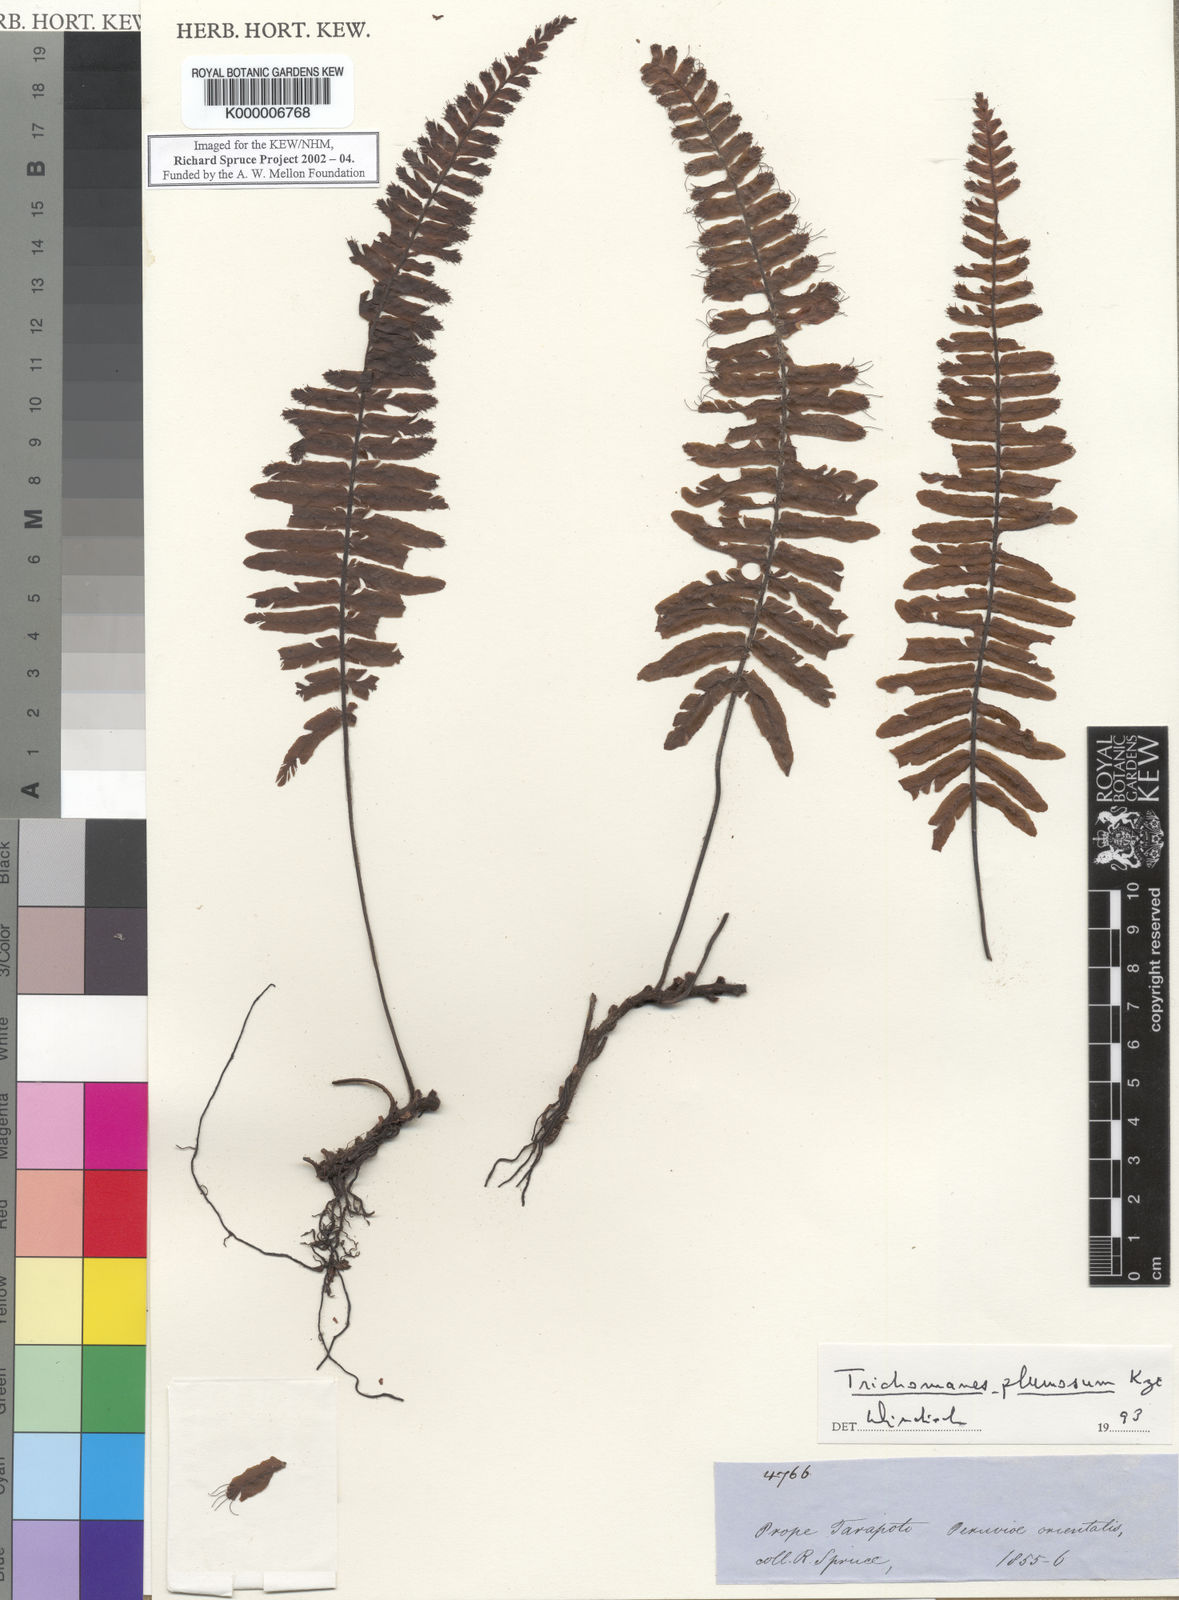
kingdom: Plantae
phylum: Tracheophyta
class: Polypodiopsida
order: Hymenophyllales
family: Hymenophyllaceae
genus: Trichomanes
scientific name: Trichomanes plumosum
